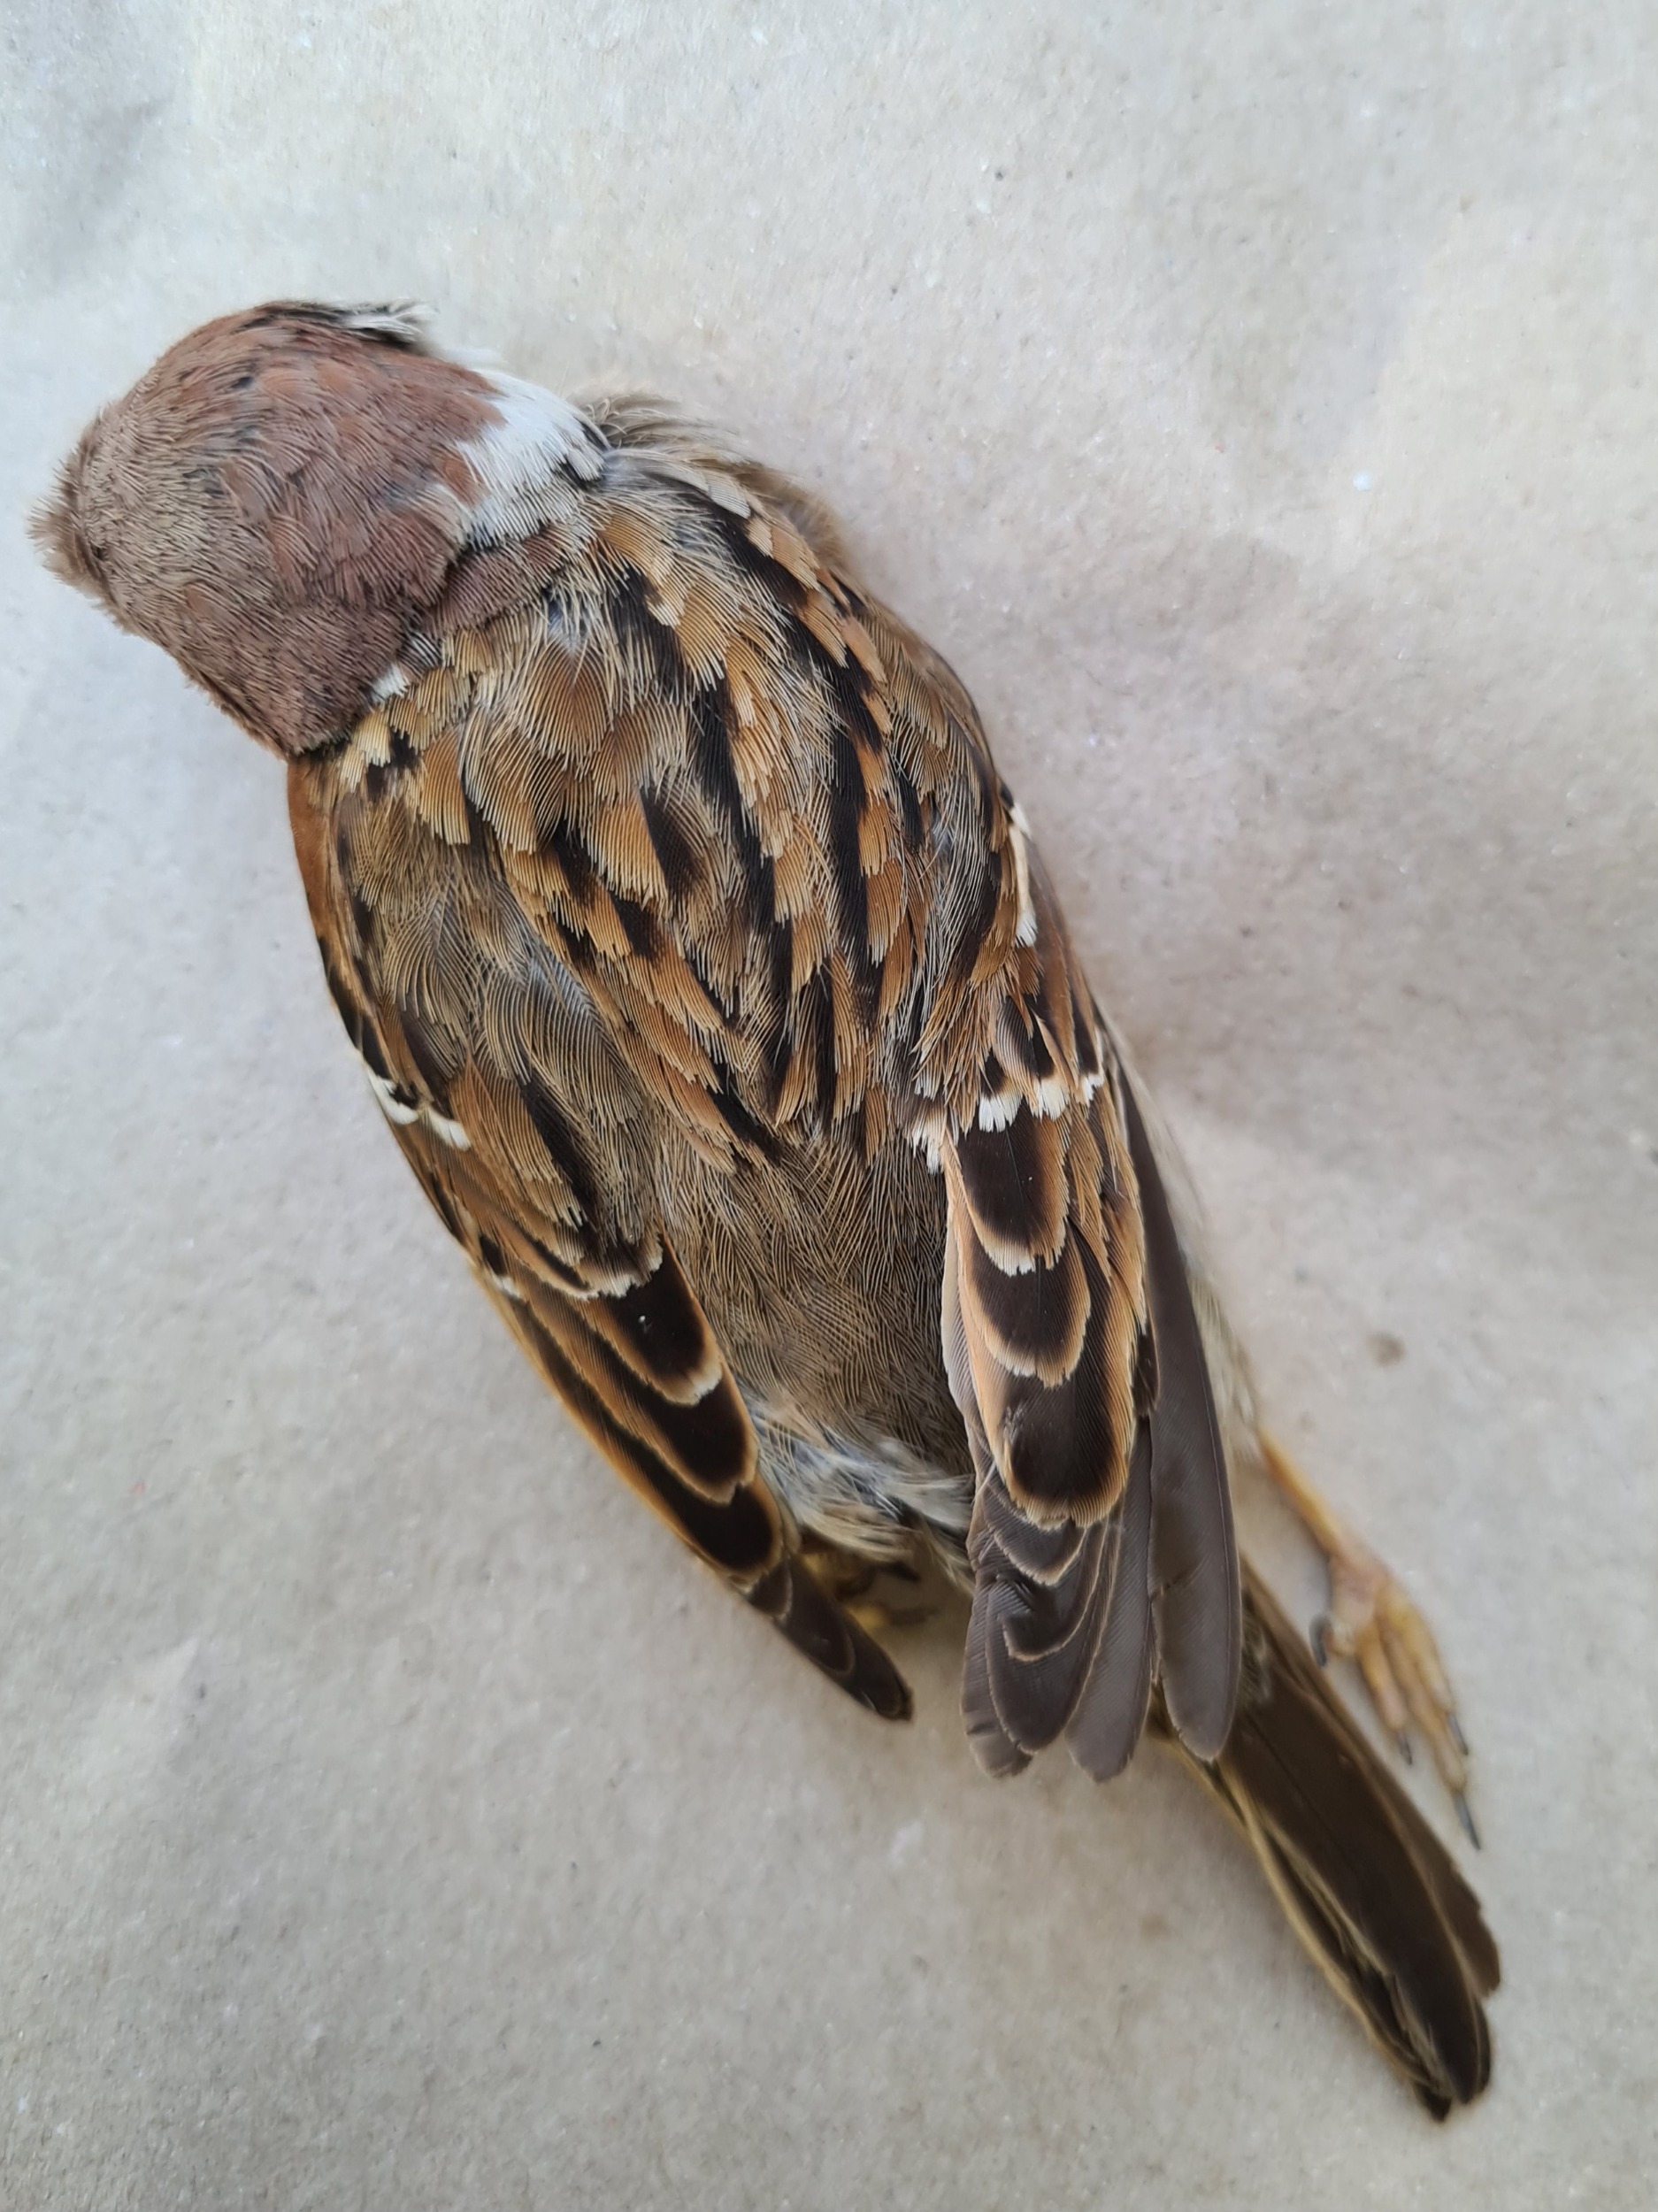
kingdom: Animalia
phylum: Chordata
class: Aves
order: Passeriformes
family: Passeridae
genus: Passer
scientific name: Passer montanus
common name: Skovspurv
